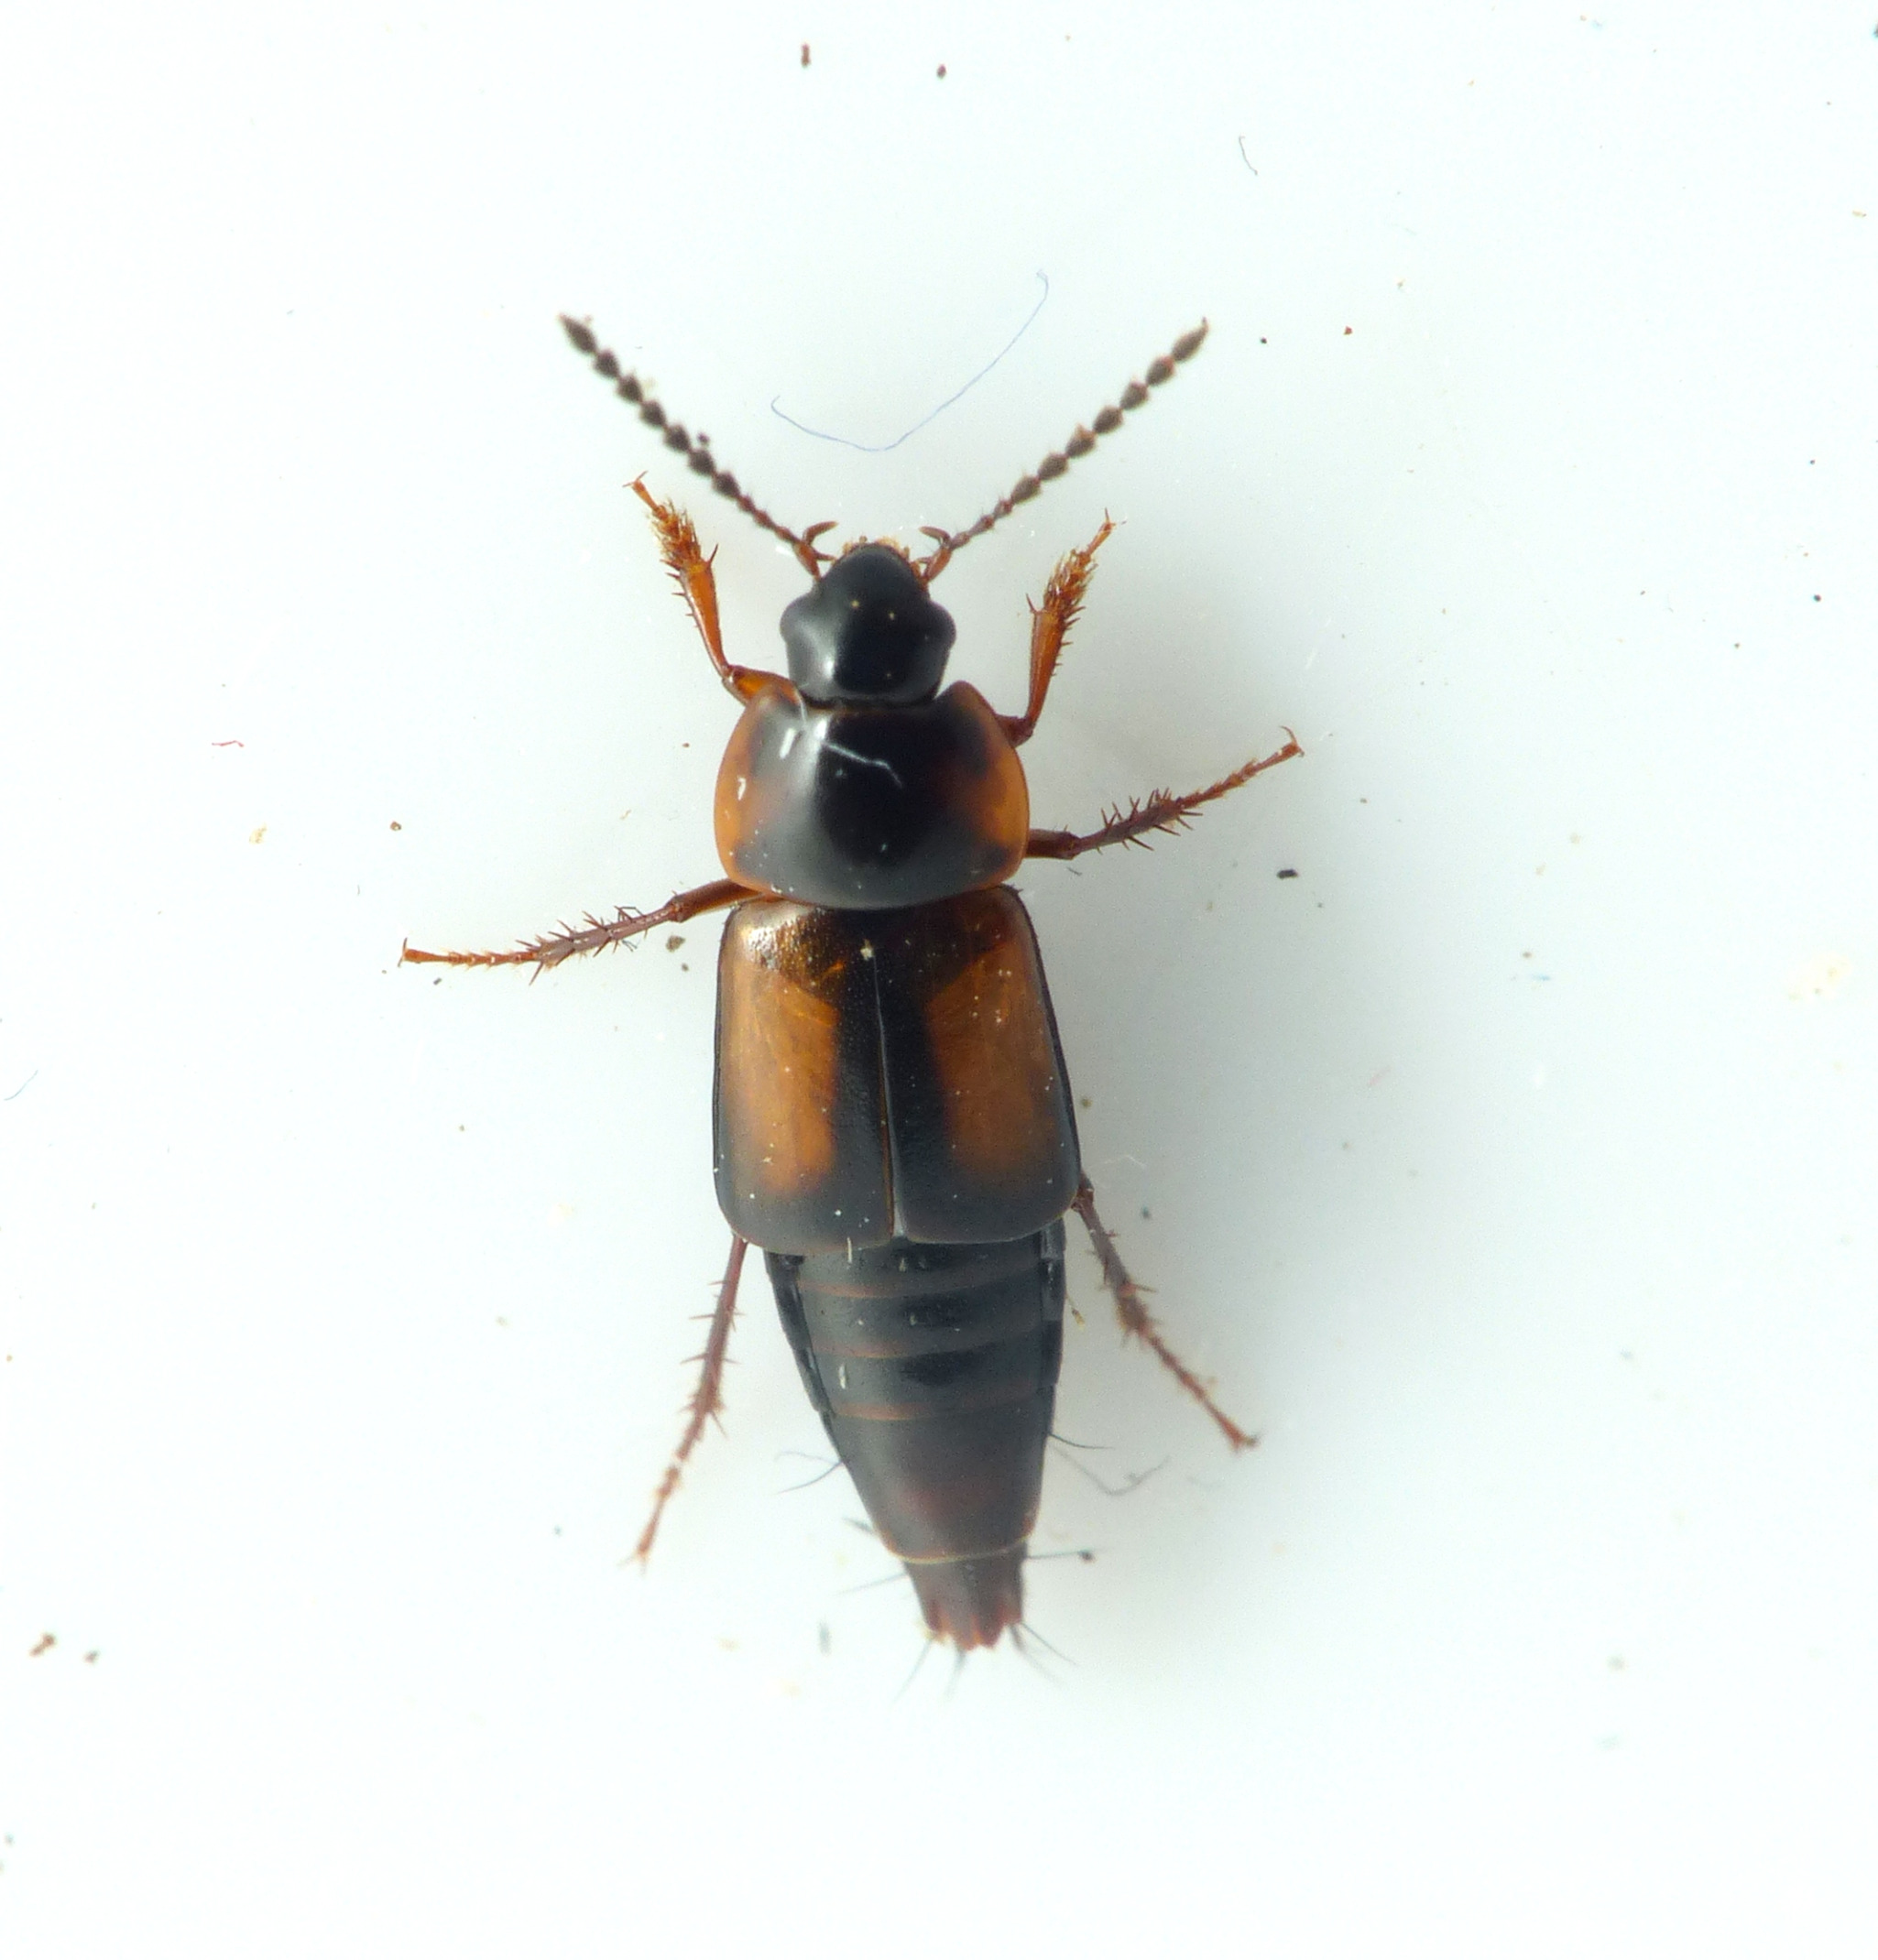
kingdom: Animalia
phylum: Arthropoda
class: Insecta
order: Coleoptera
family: Staphylinidae
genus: Tachinus
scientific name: Tachinus subterraneus
